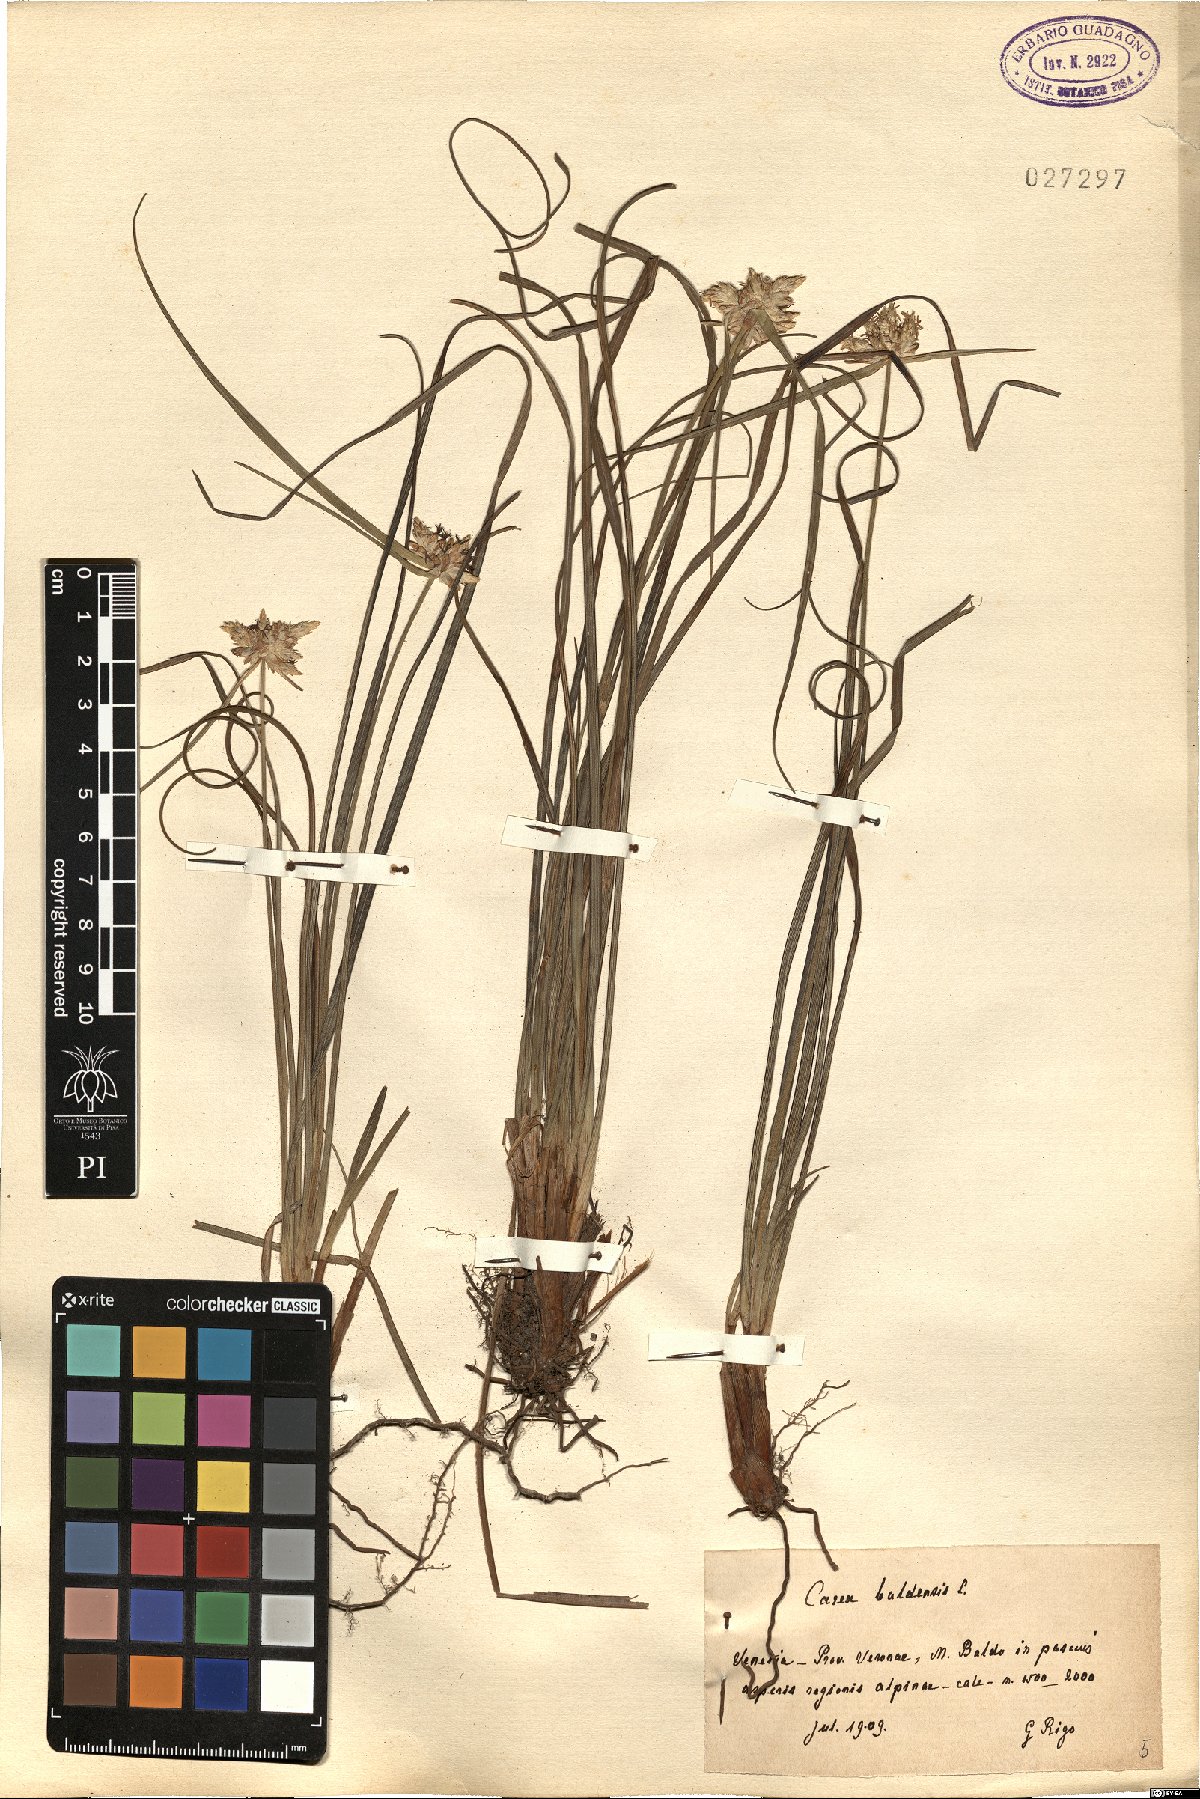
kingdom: Plantae
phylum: Tracheophyta
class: Liliopsida
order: Poales
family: Cyperaceae
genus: Carex
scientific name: Carex baldensis
